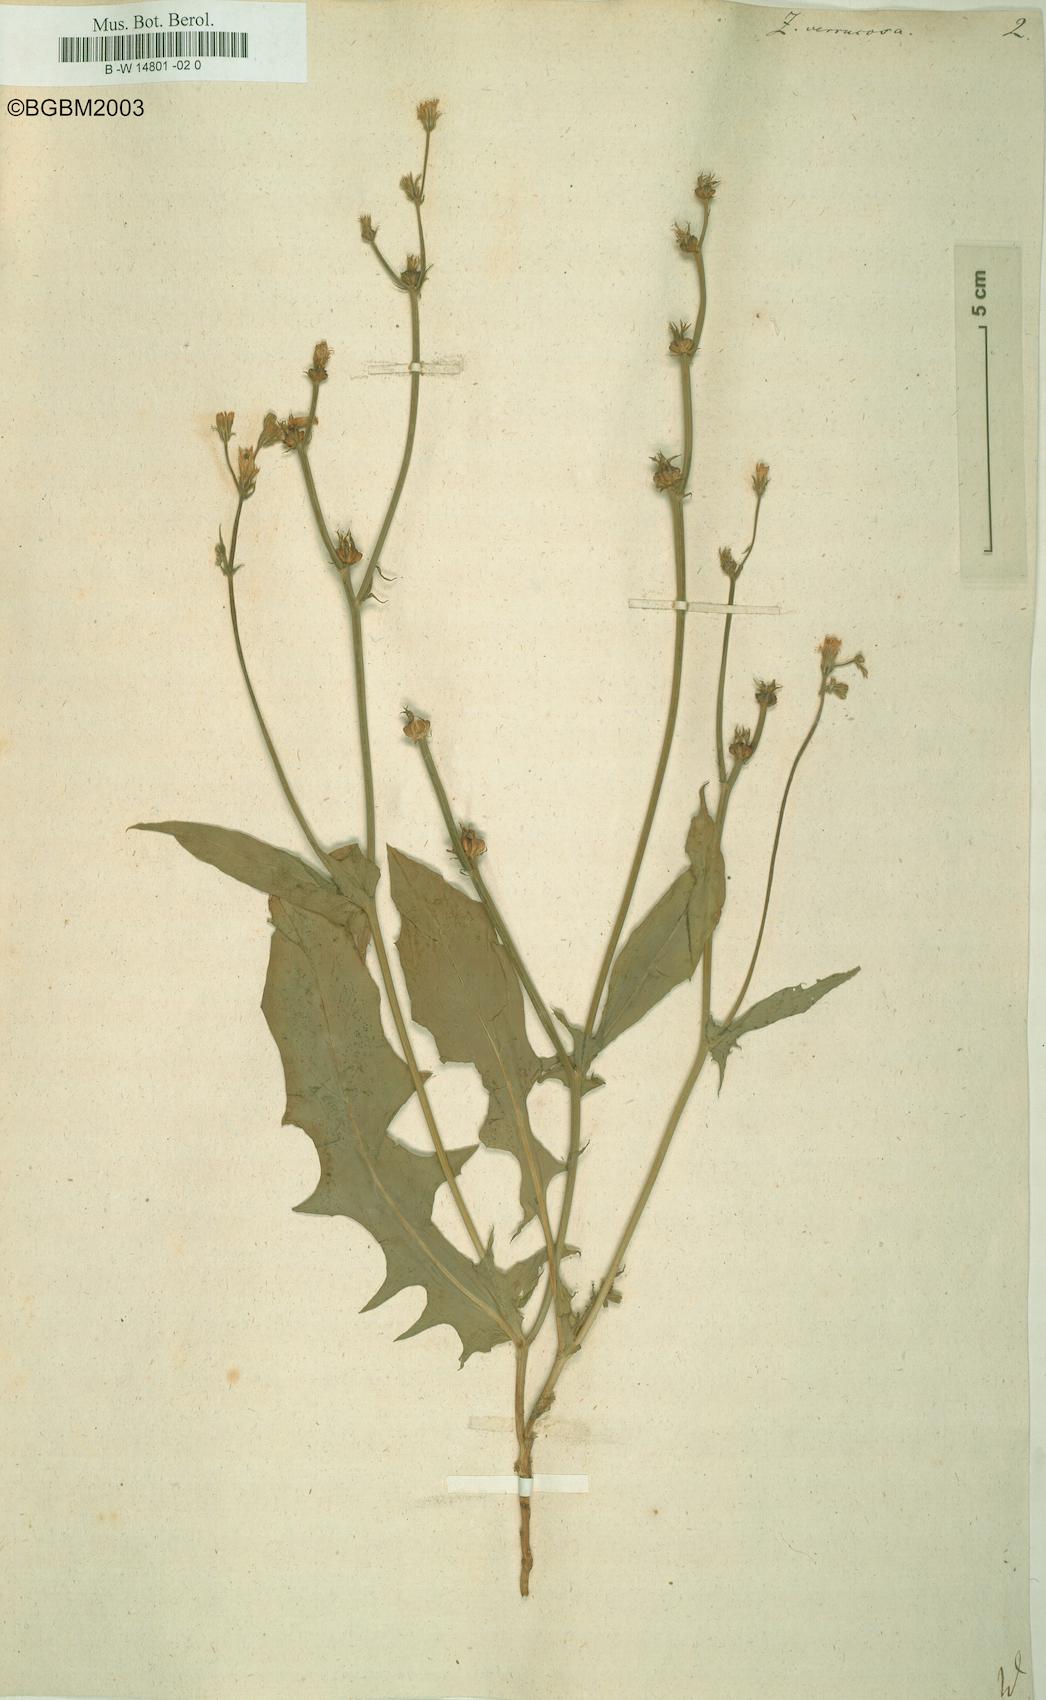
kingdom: Plantae
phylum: Tracheophyta
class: Magnoliopsida
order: Asterales
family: Asteraceae
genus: Crepis
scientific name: Crepis zacintha
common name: Striped hawksbeard
